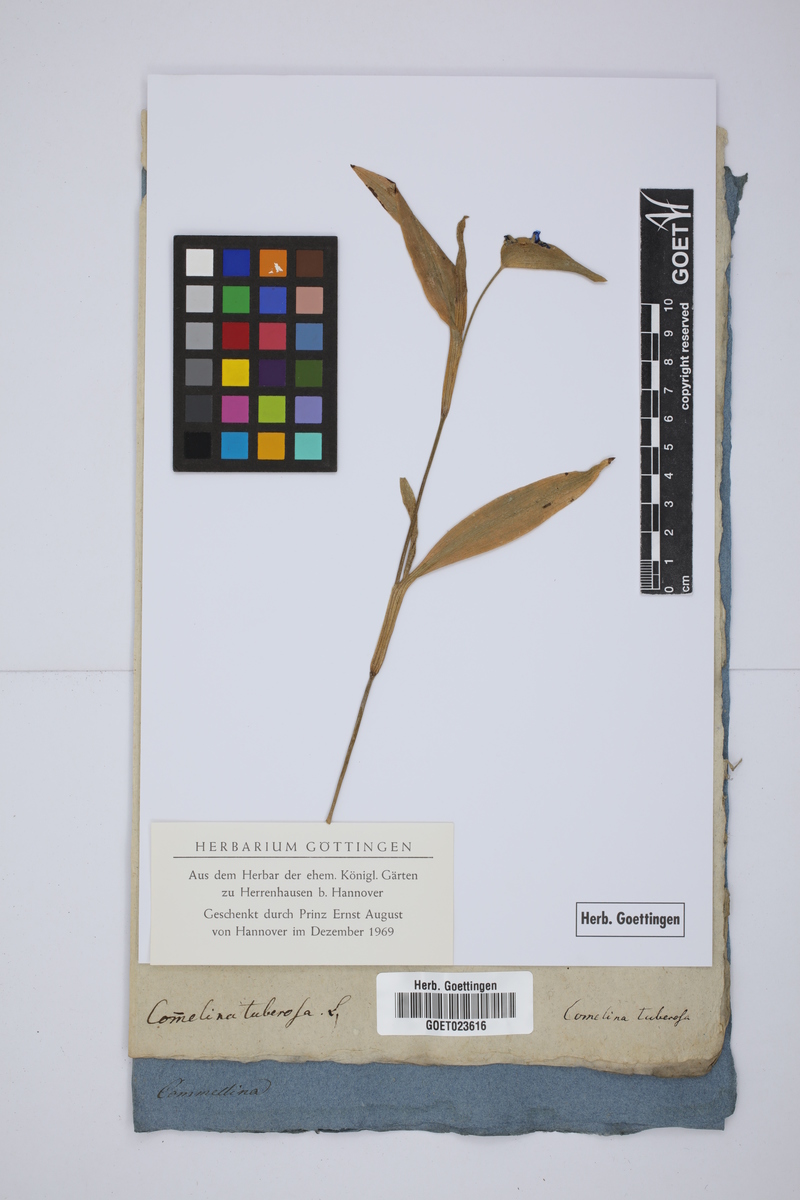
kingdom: Plantae
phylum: Tracheophyta
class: Liliopsida
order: Commelinales
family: Commelinaceae
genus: Commelina
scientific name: Commelina tuberosa
